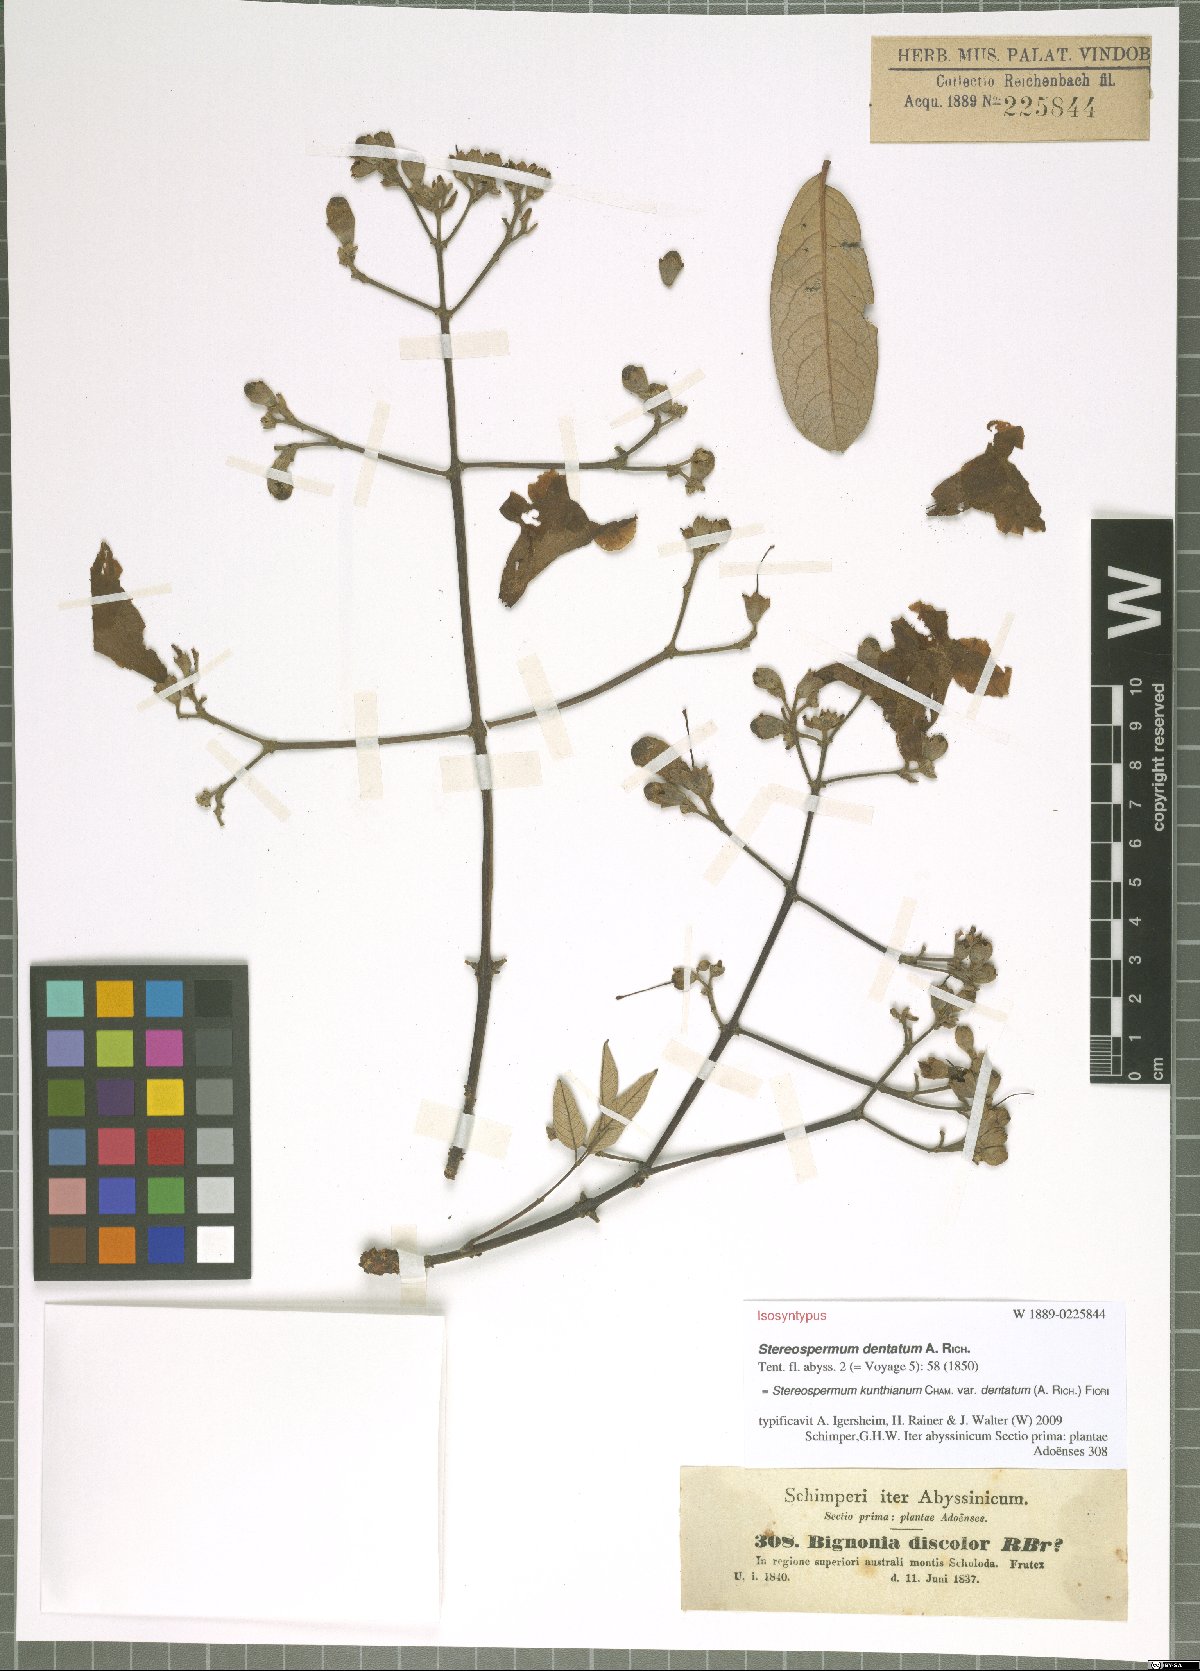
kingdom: Plantae
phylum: Tracheophyta
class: Magnoliopsida
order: Lamiales
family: Bignoniaceae
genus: Stereospermum
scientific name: Stereospermum kunthianum
